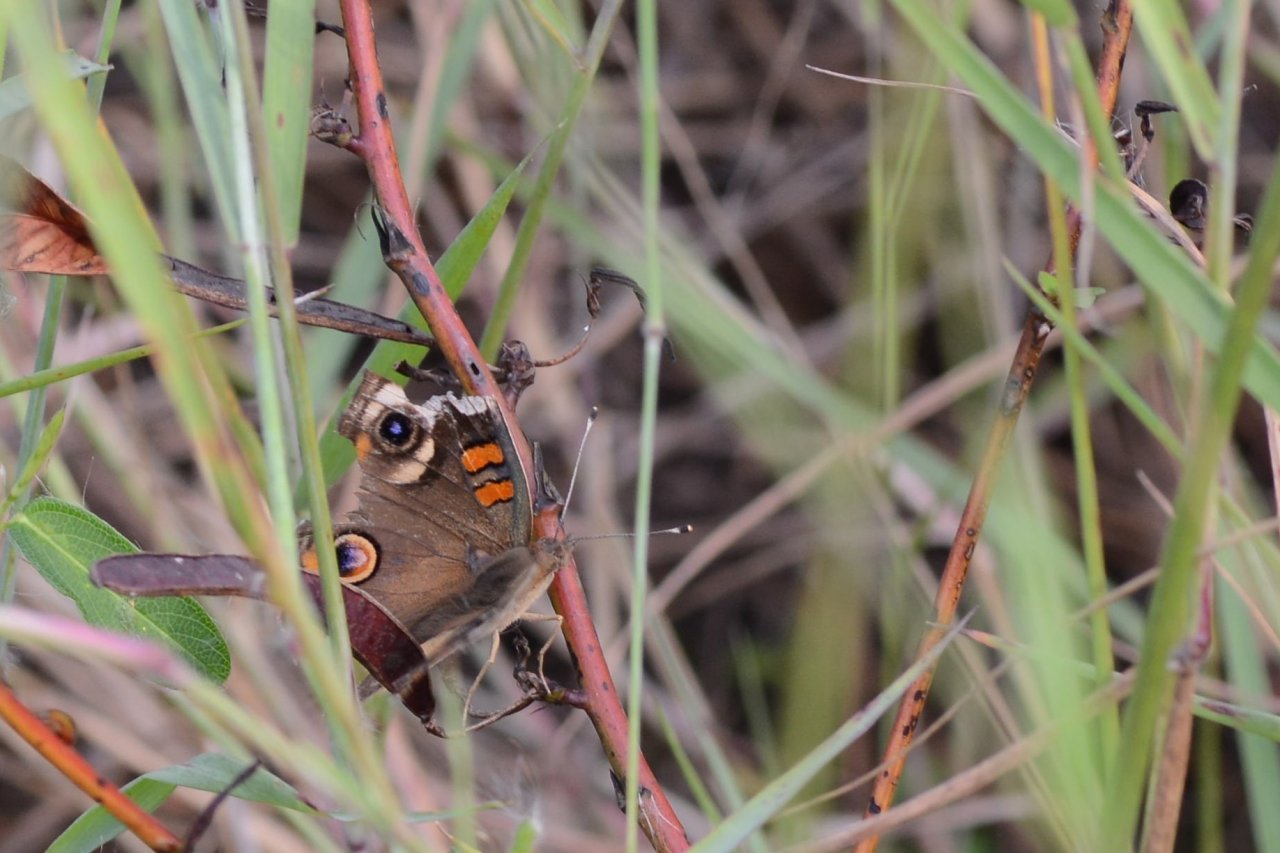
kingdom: Animalia
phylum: Arthropoda
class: Insecta
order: Lepidoptera
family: Nymphalidae
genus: Junonia
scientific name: Junonia coenia
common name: Common Buckeye
